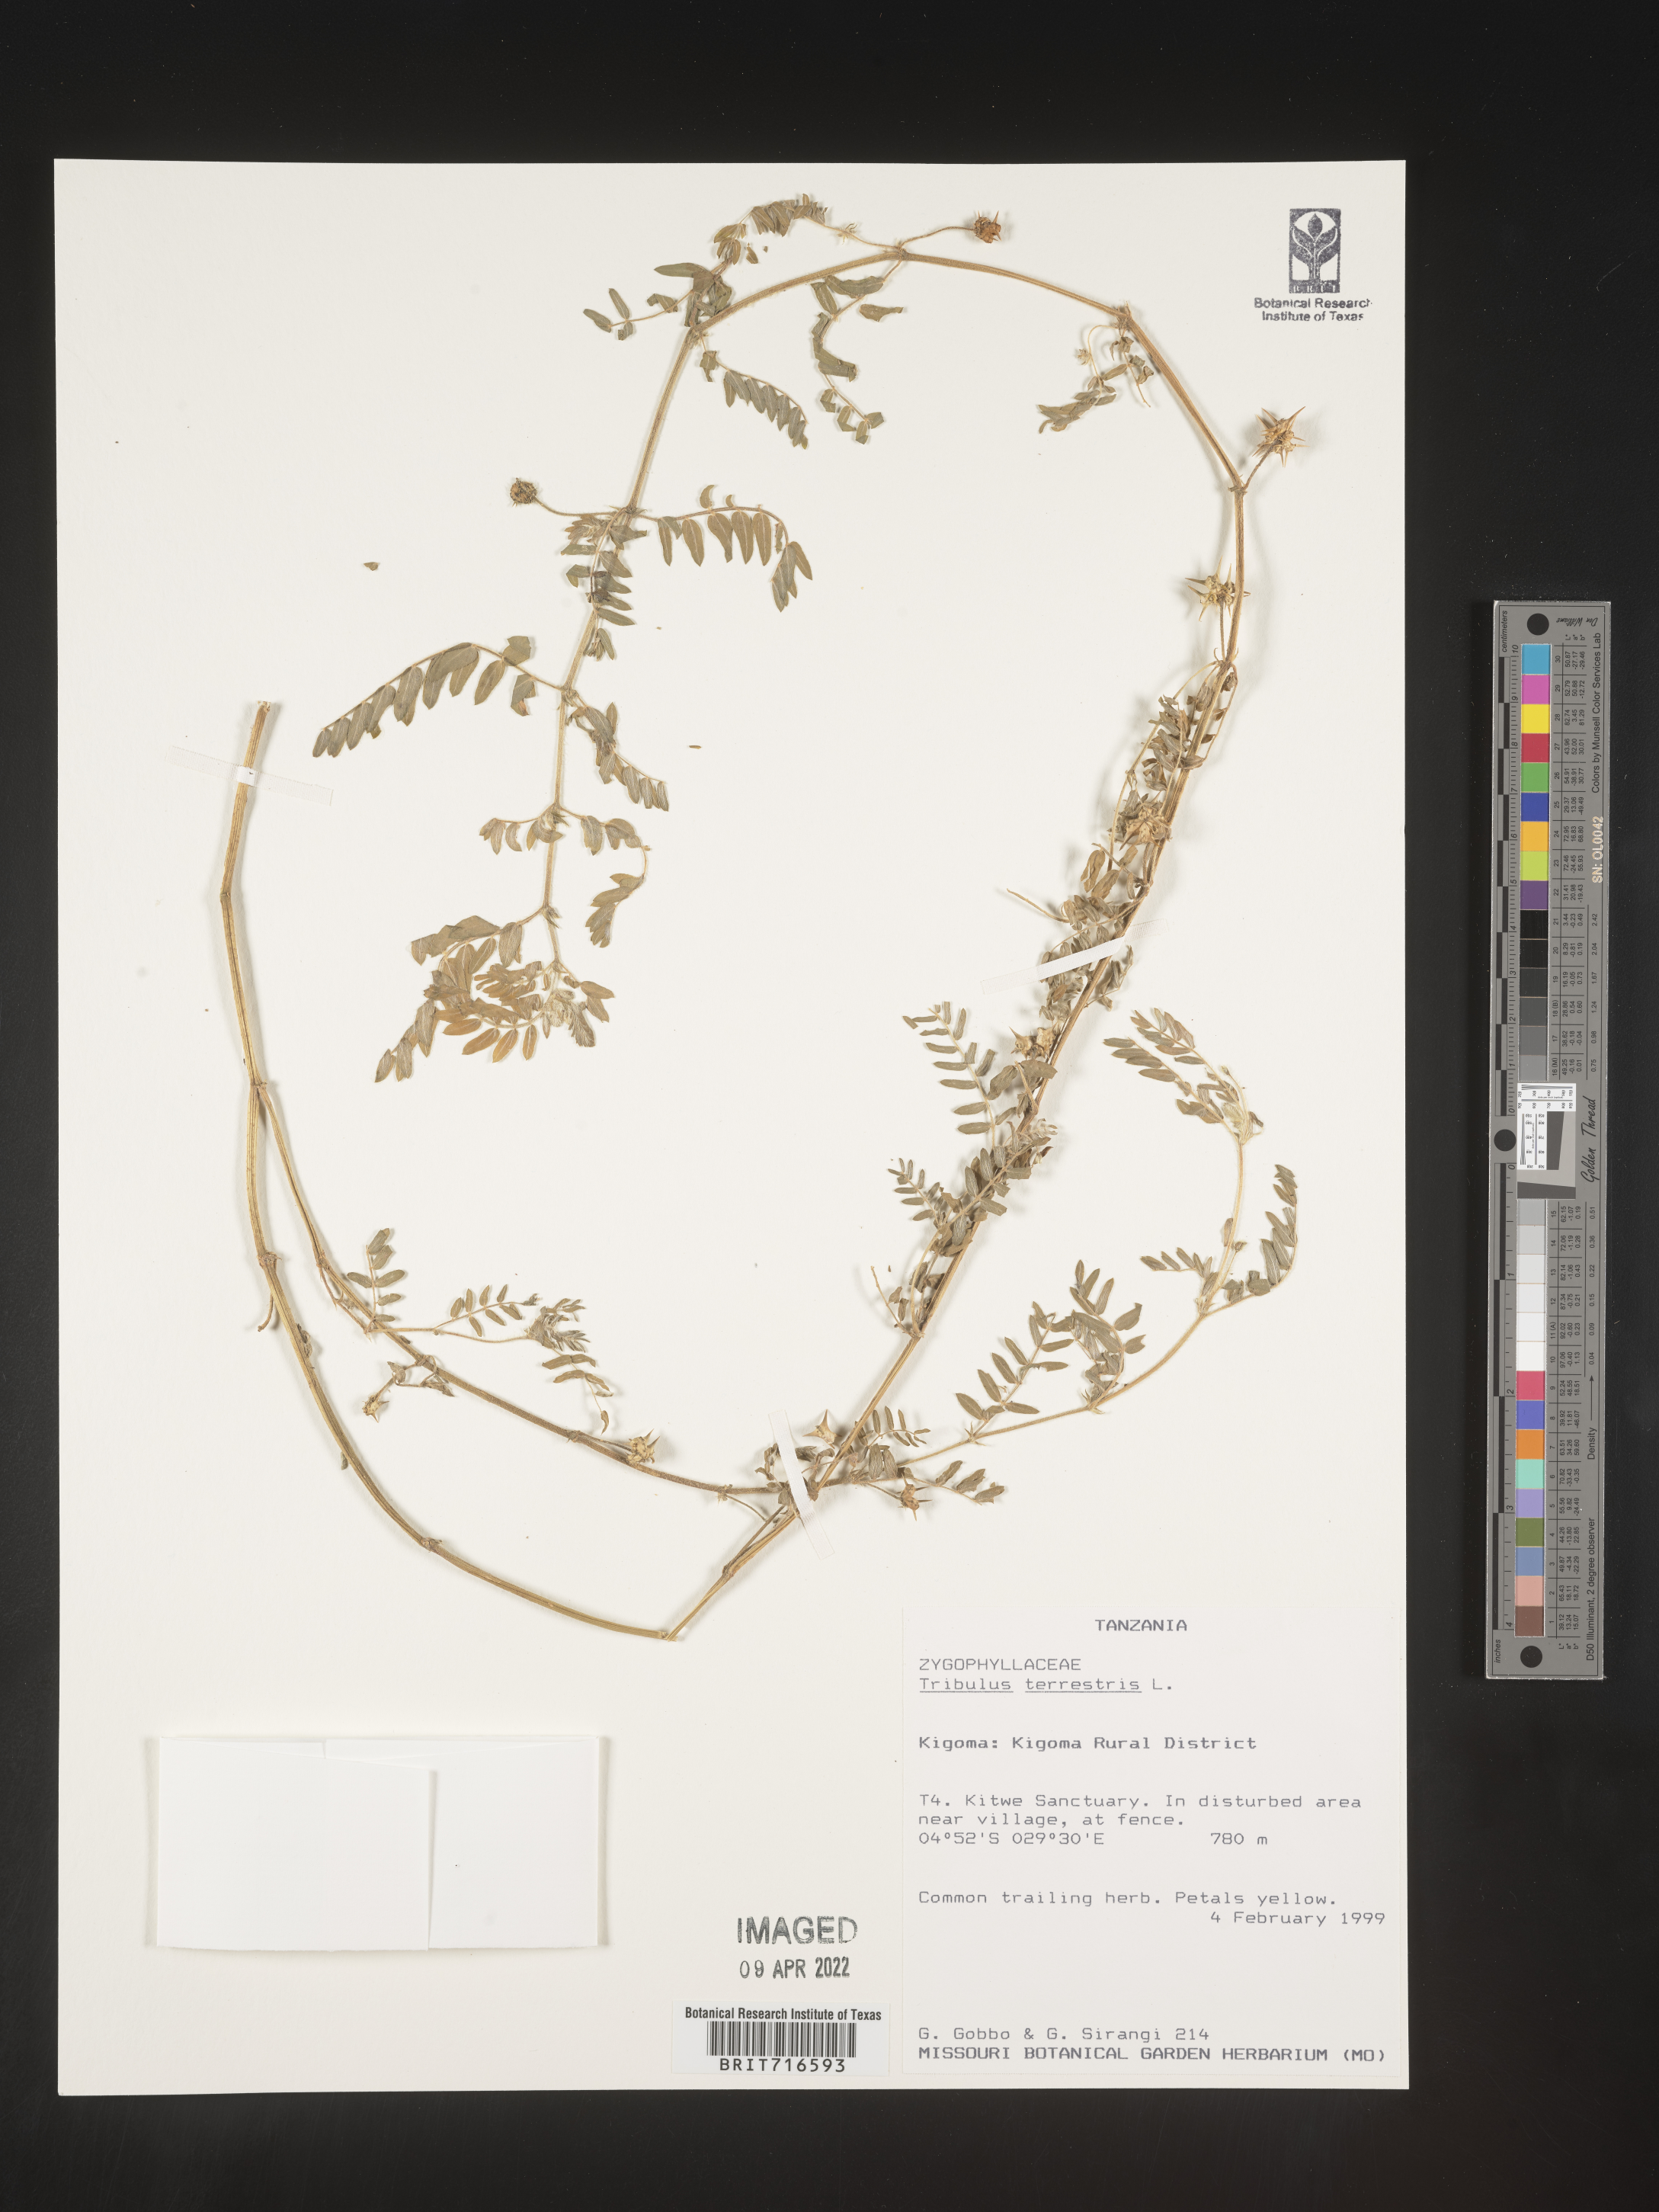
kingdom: Plantae
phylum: Tracheophyta
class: Magnoliopsida
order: Zygophyllales
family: Zygophyllaceae
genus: Tribulus
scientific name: Tribulus
